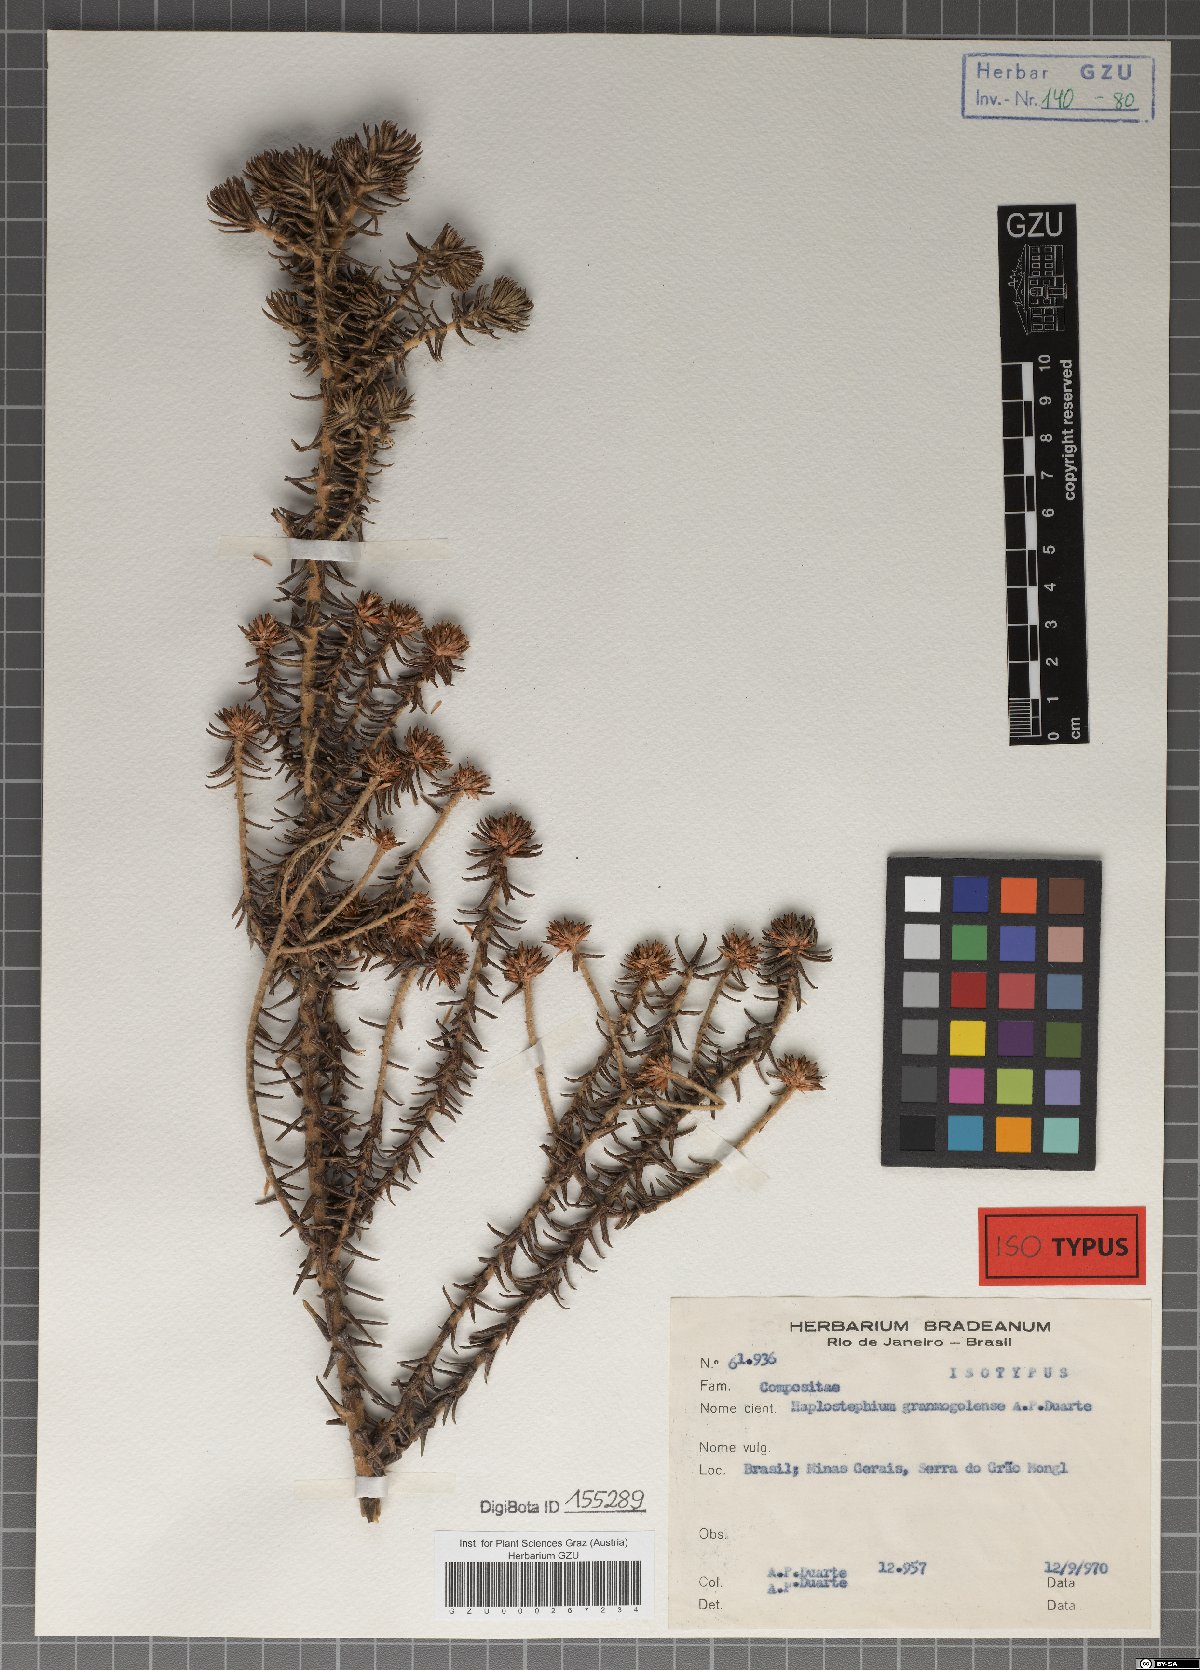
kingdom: Plantae
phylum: Tracheophyta
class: Magnoliopsida
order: Asterales
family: Asteraceae
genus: Lychnophora
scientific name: Lychnophora granmogolensis
